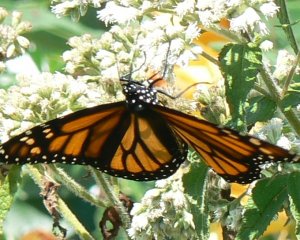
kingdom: Animalia
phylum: Arthropoda
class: Insecta
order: Lepidoptera
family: Nymphalidae
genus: Danaus
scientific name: Danaus plexippus
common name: Monarch
